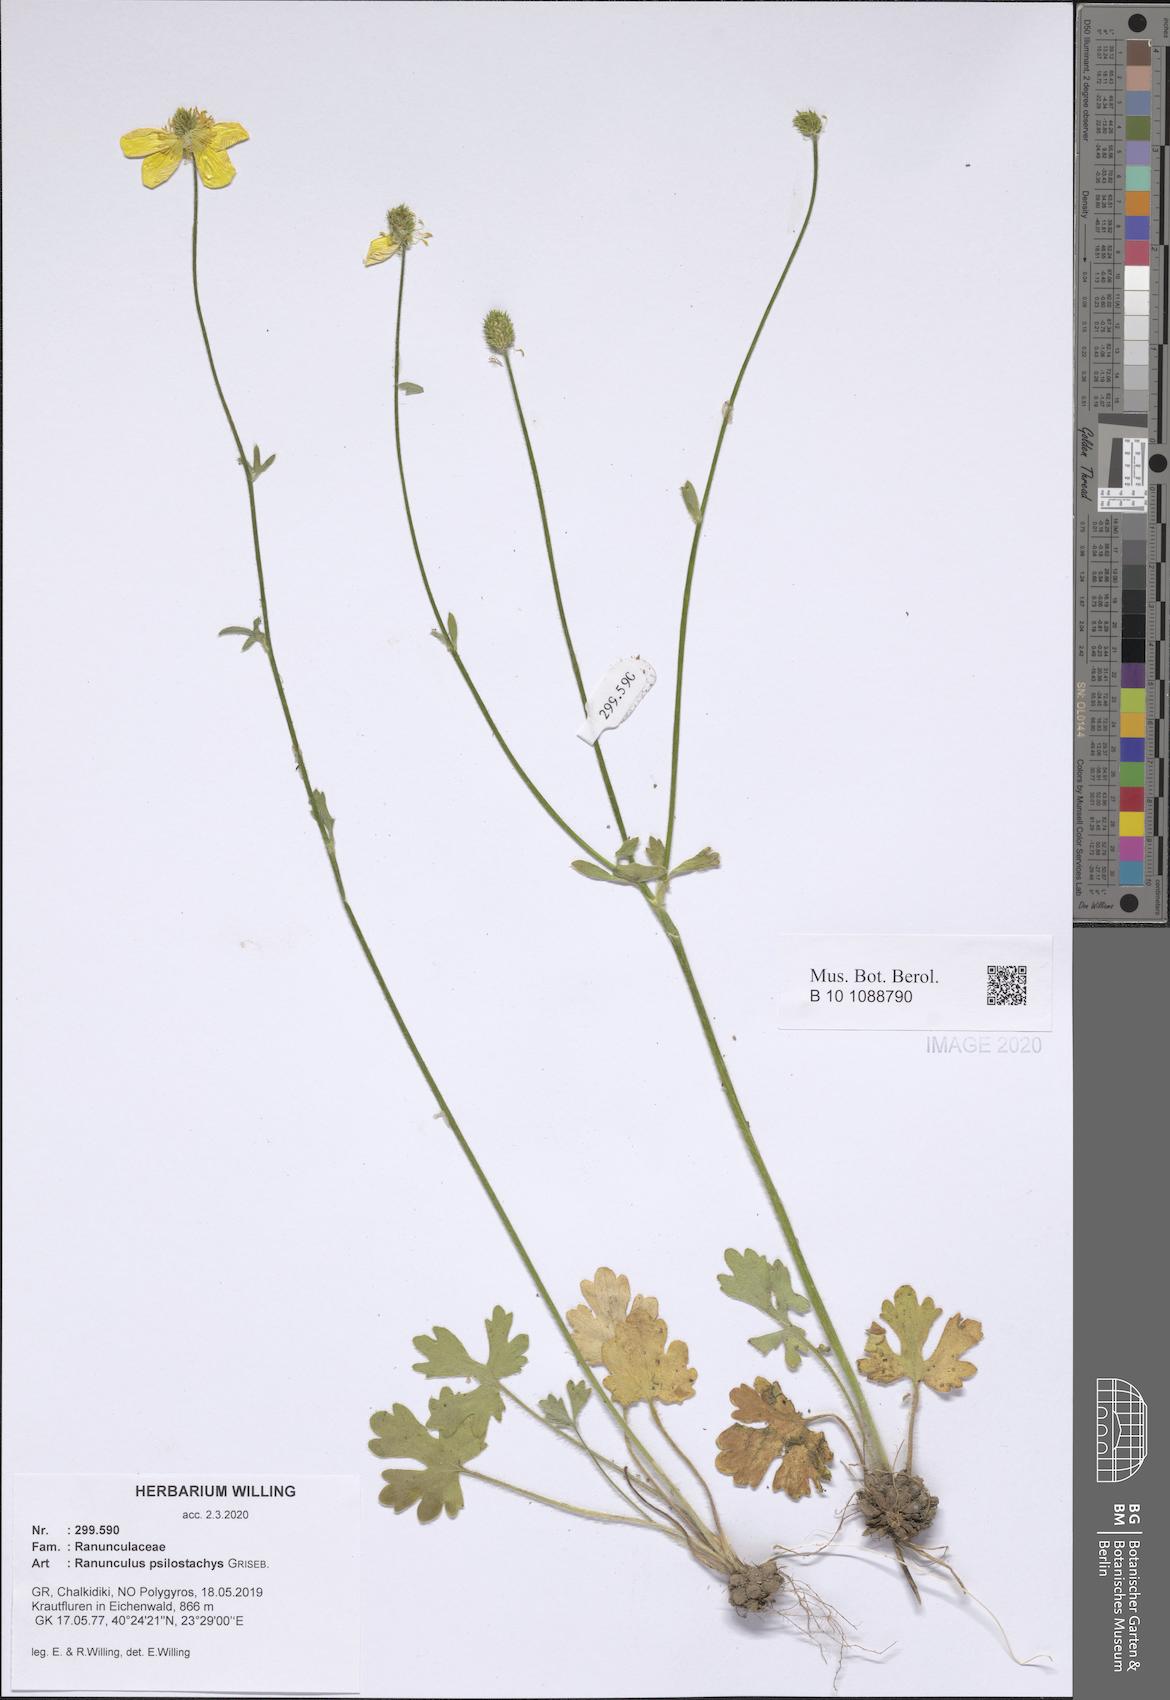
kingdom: Plantae
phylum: Tracheophyta
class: Magnoliopsida
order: Ranunculales
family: Ranunculaceae
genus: Ranunculus
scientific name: Ranunculus psilostachys
